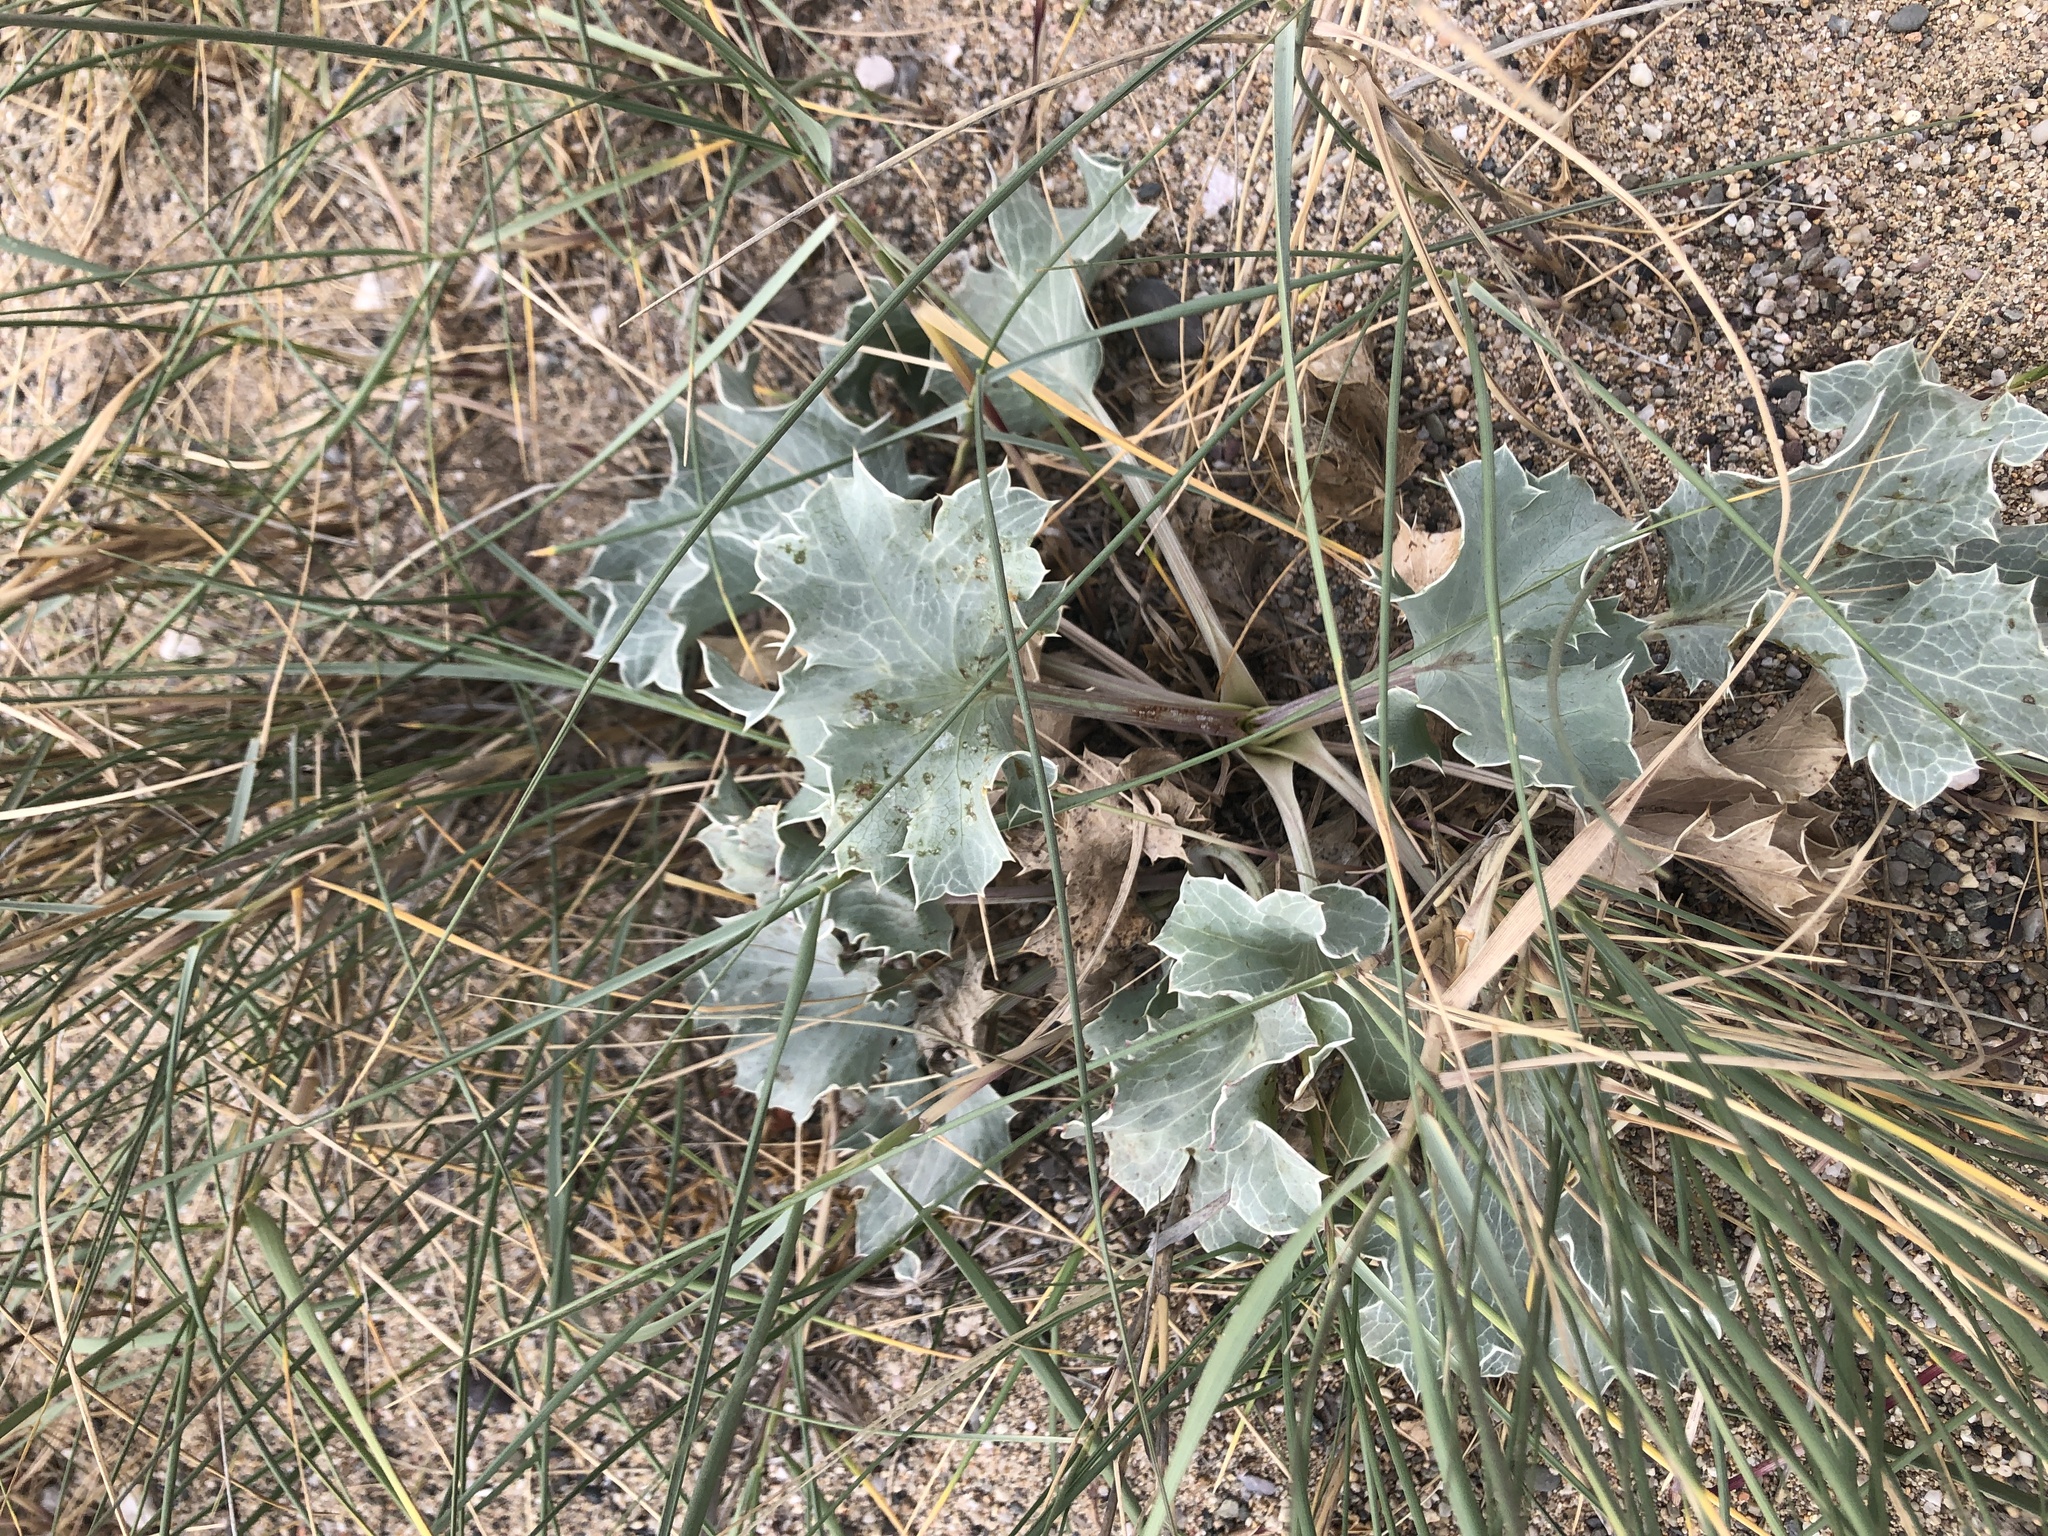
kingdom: Plantae
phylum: Tracheophyta
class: Magnoliopsida
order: Apiales
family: Apiaceae
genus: Eryngium
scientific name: Eryngium maritimum
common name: Sea-holly
